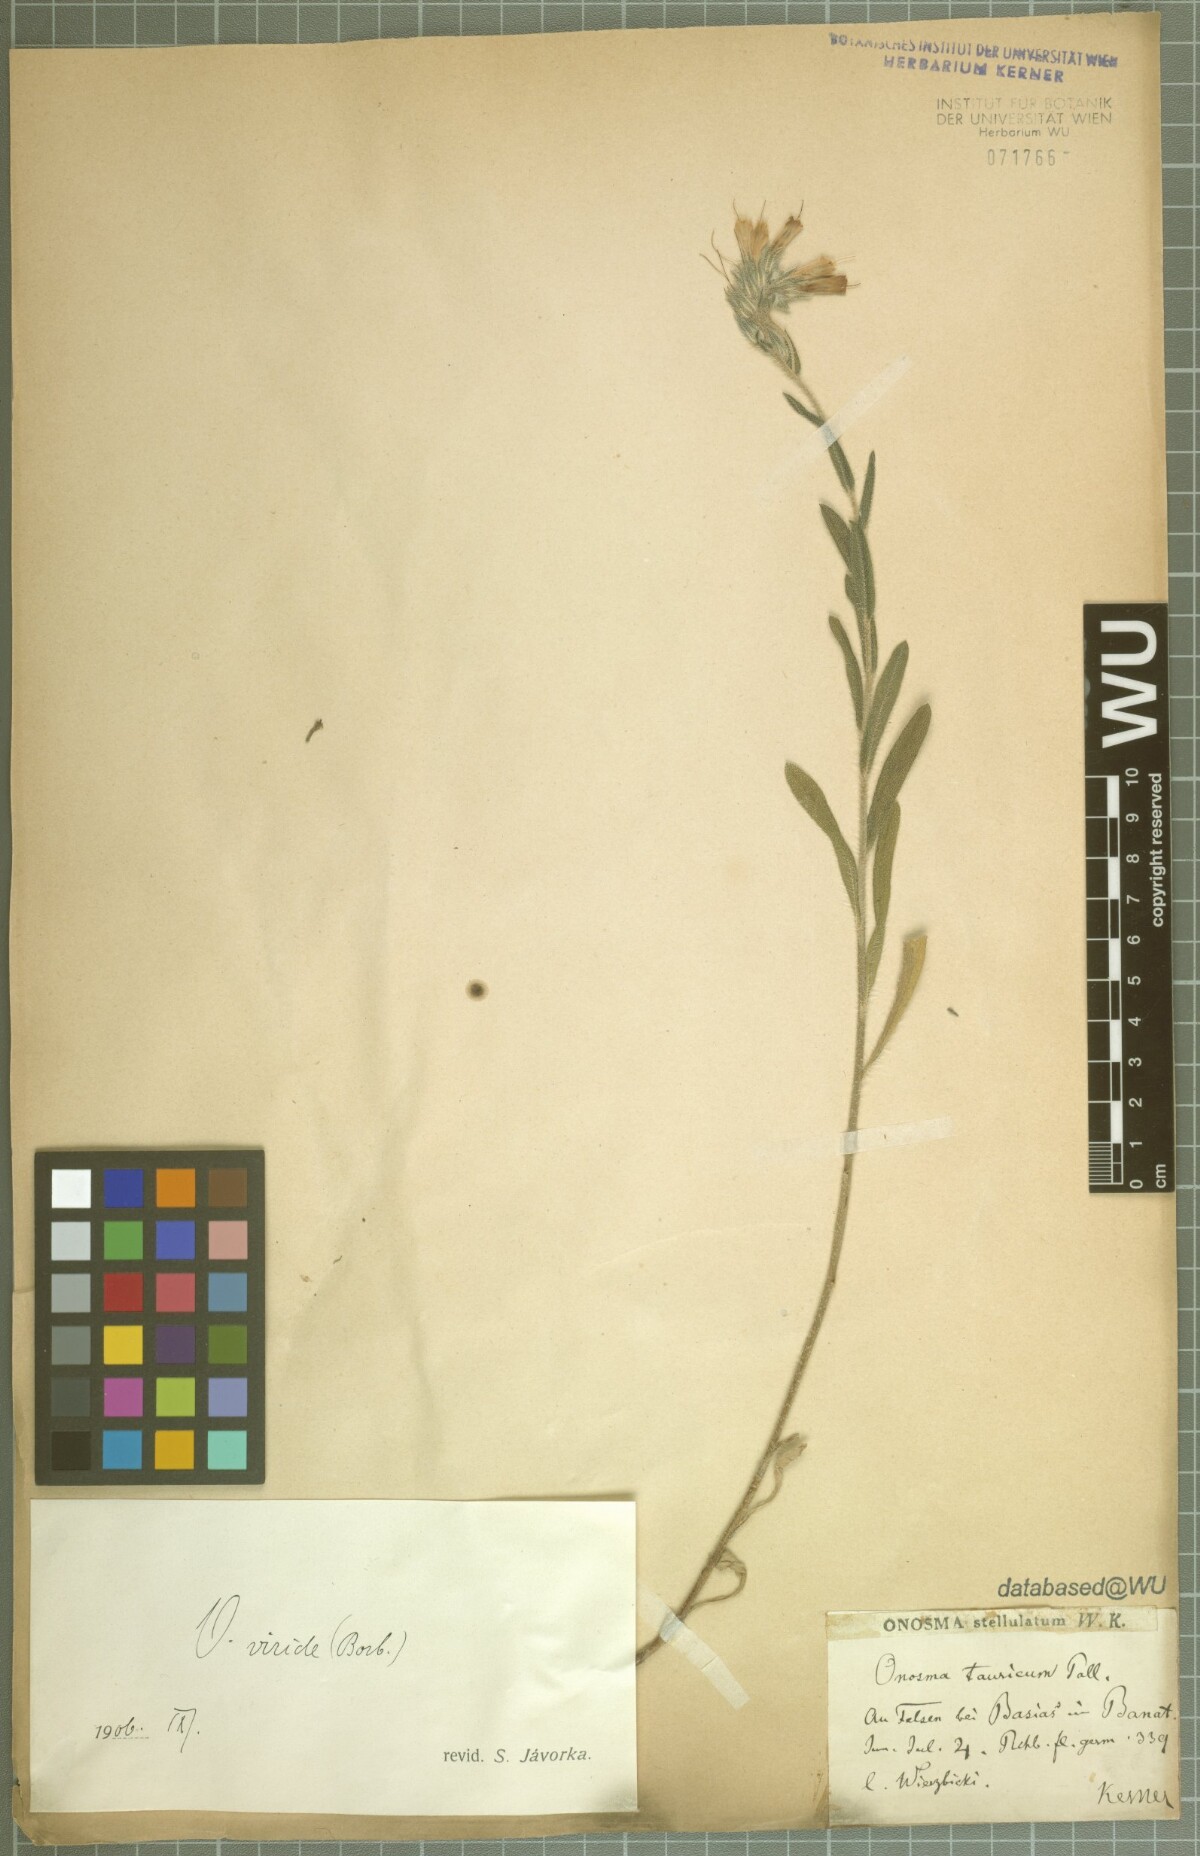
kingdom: Plantae
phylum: Tracheophyta
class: Magnoliopsida
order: Boraginales
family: Boraginaceae
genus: Onosma
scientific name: Onosma viridis
